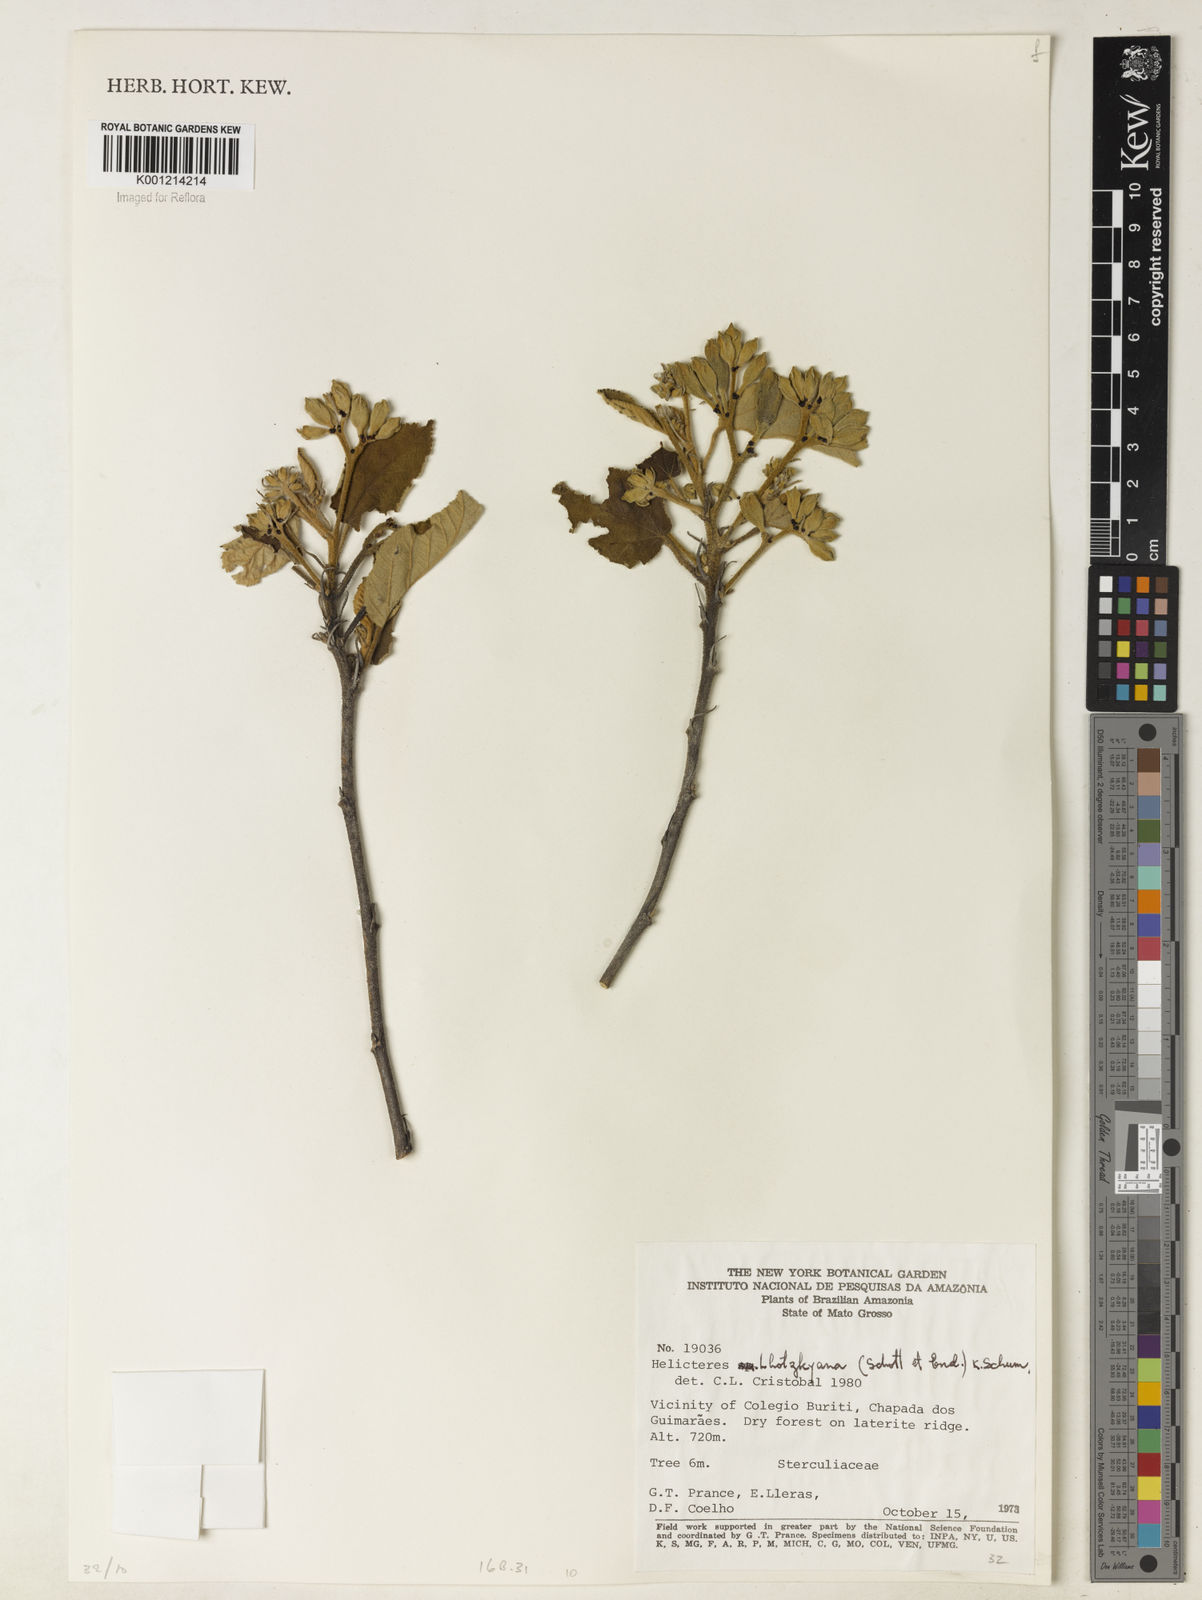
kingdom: Plantae
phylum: Tracheophyta
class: Magnoliopsida
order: Malvales
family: Malvaceae
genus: Helicteres
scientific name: Helicteres lhotzkyana
